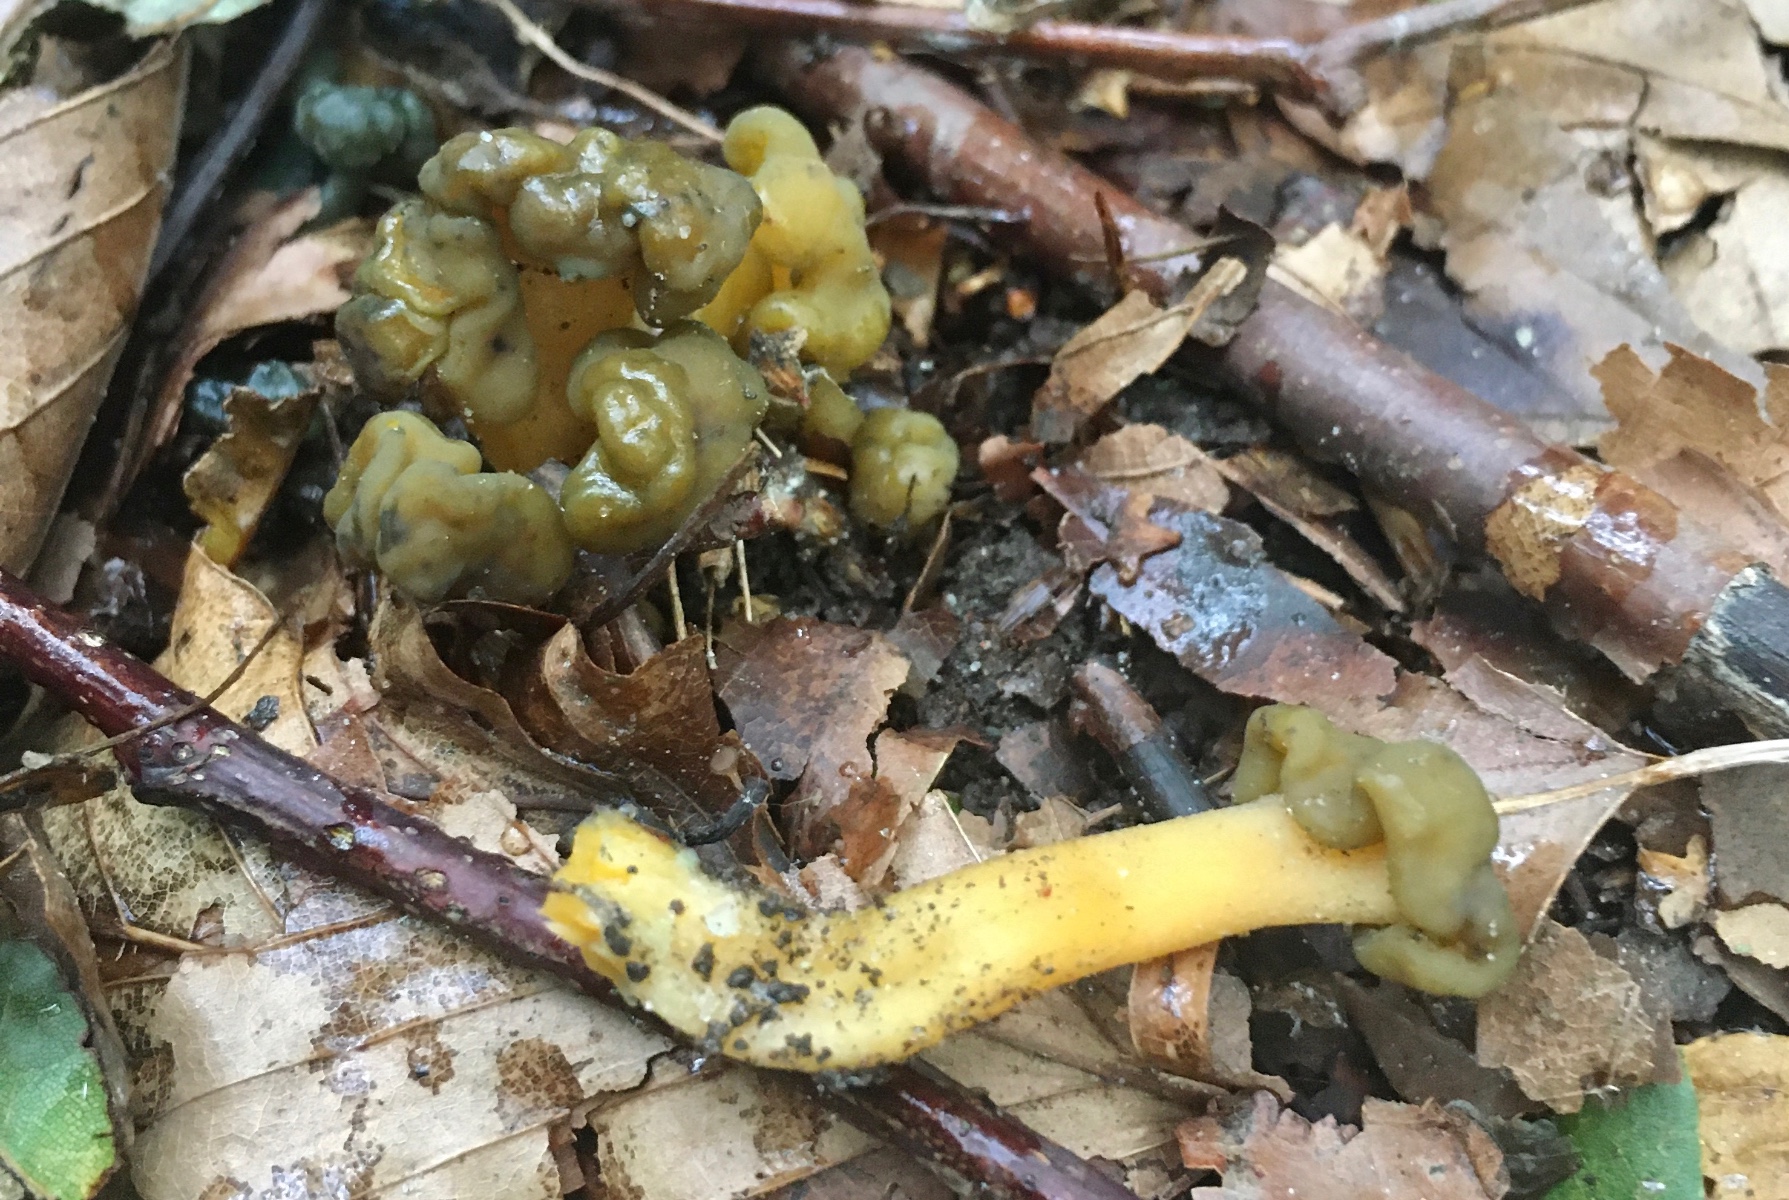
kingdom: Fungi
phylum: Ascomycota
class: Leotiomycetes
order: Leotiales
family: Leotiaceae
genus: Leotia
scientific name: Leotia lubrica
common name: ravsvamp
